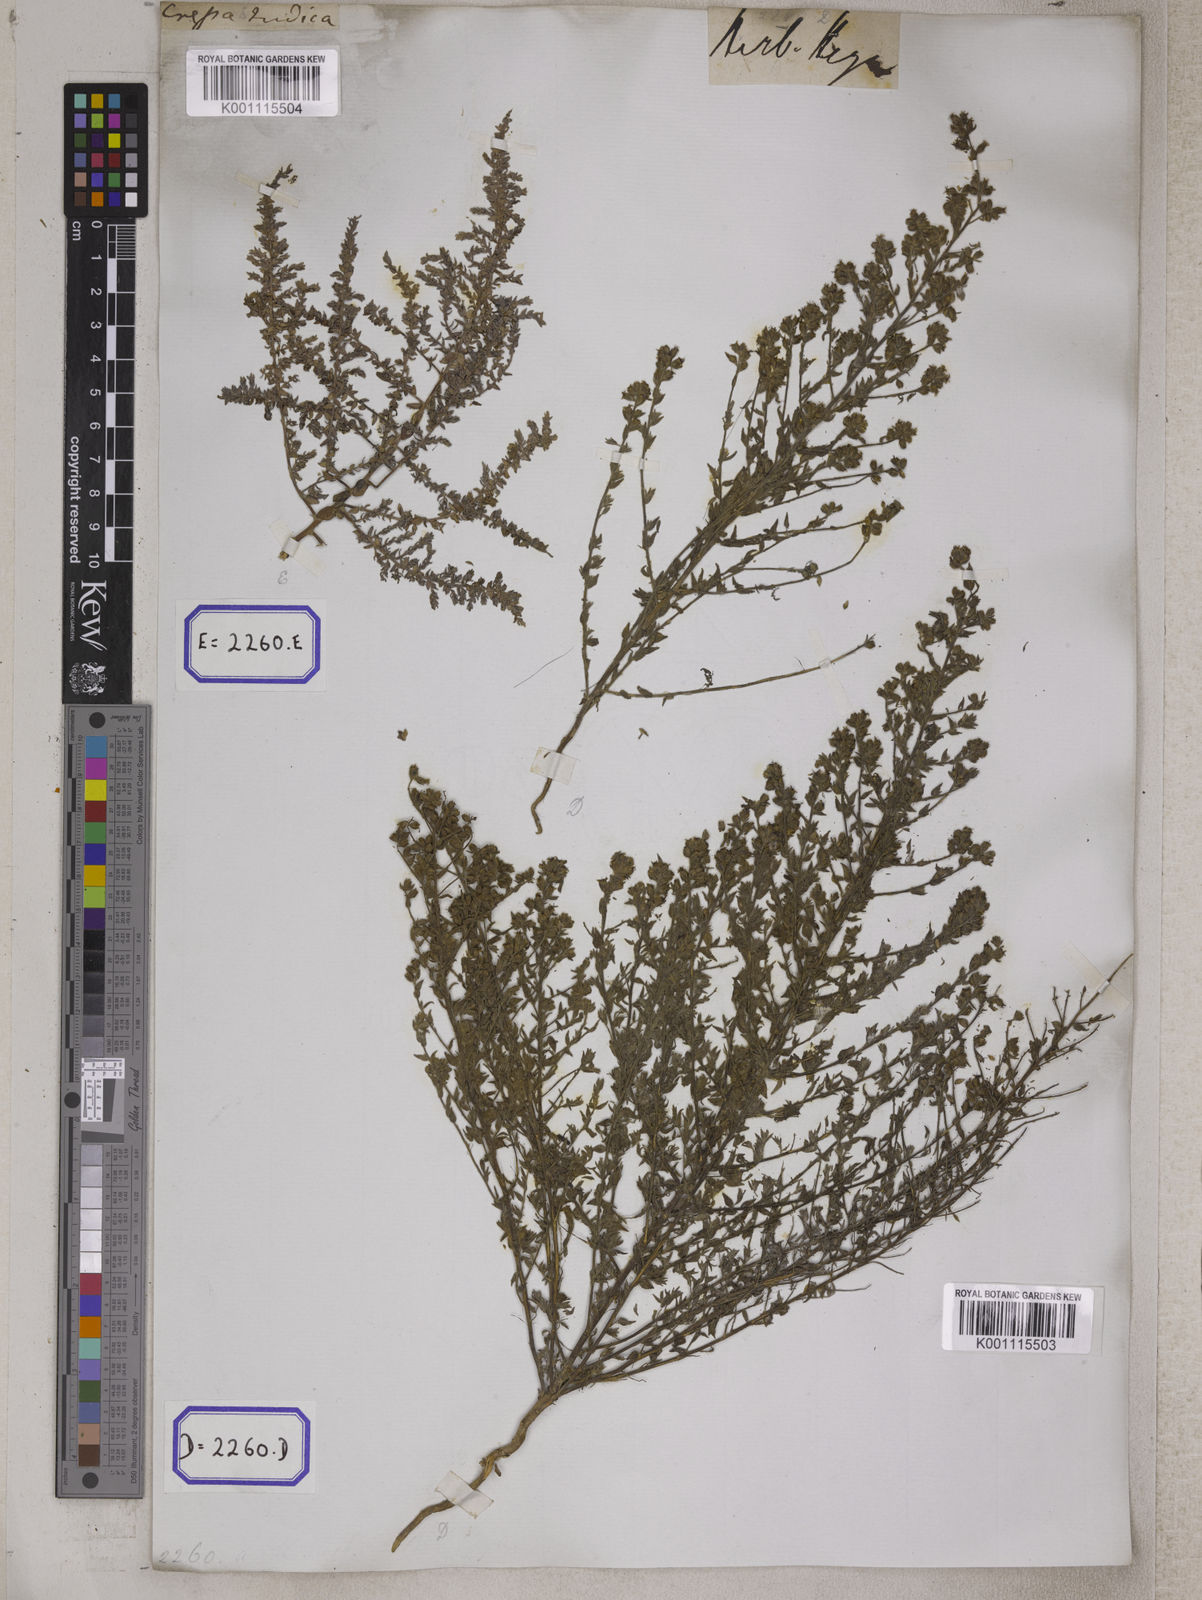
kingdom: Plantae
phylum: Tracheophyta
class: Magnoliopsida
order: Solanales
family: Convolvulaceae
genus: Cressa
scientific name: Cressa cretica
